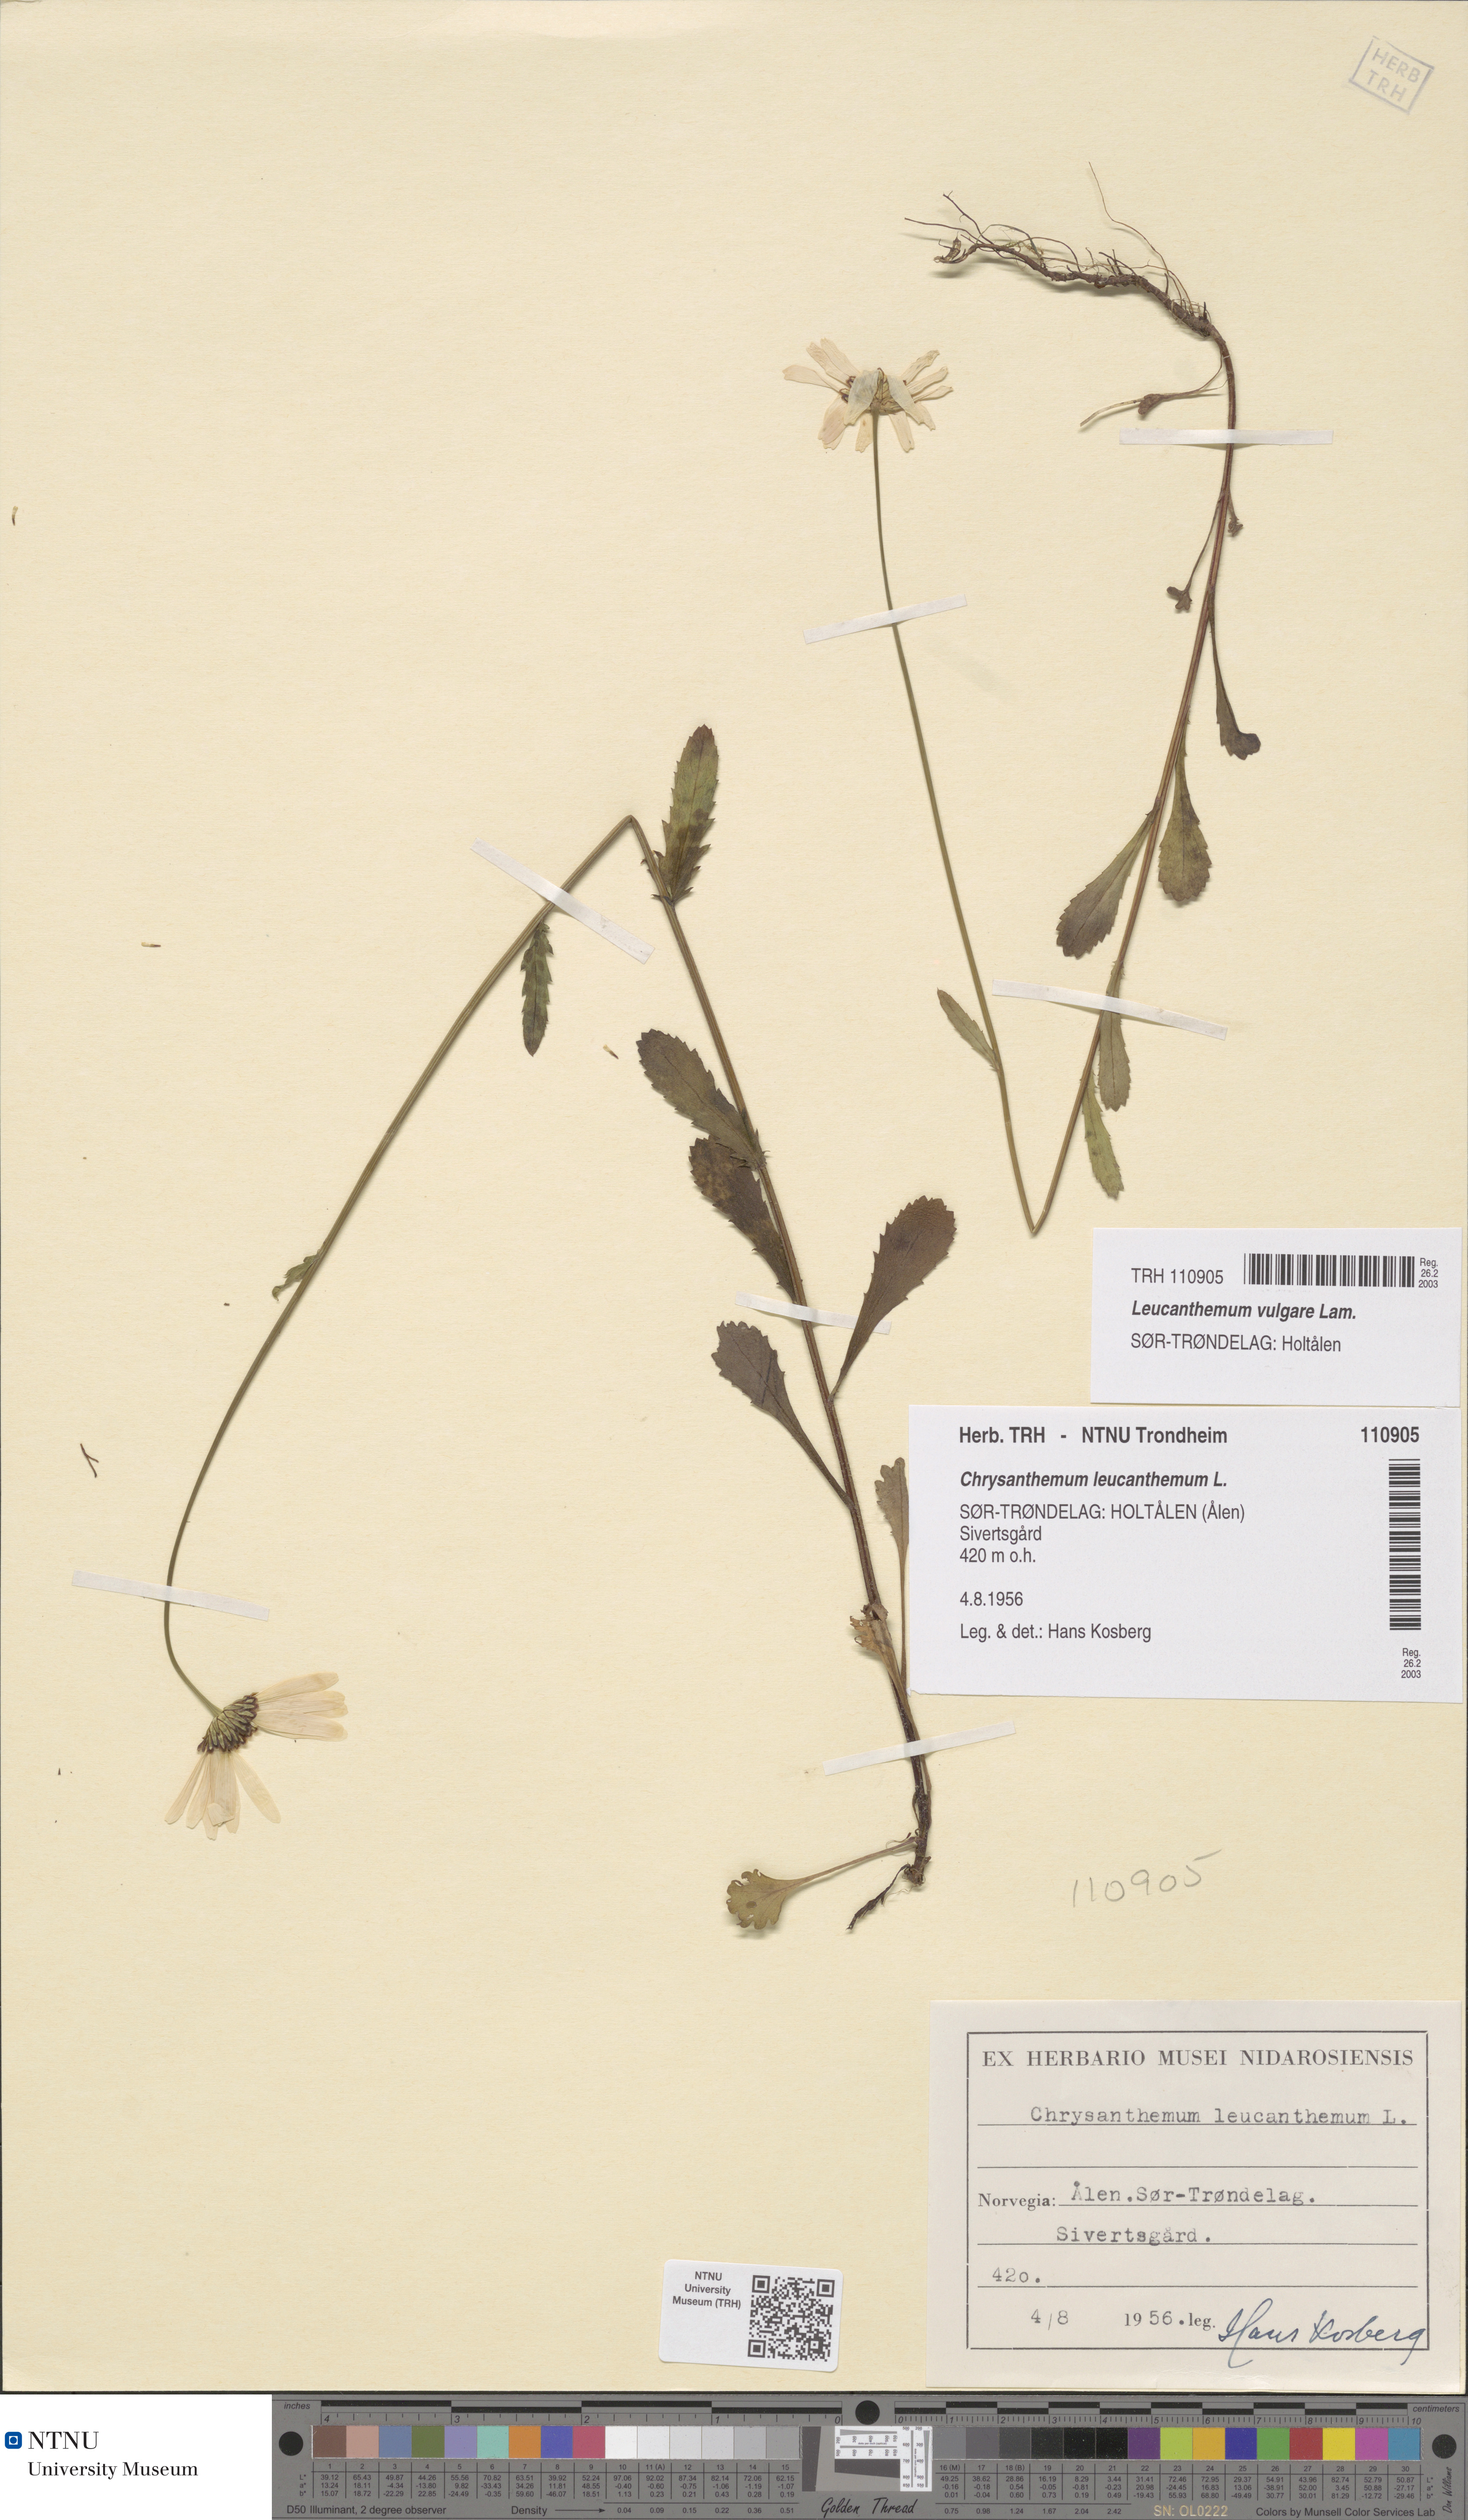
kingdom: Plantae
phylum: Tracheophyta
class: Magnoliopsida
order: Asterales
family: Asteraceae
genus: Leucanthemum
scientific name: Leucanthemum vulgare
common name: Oxeye daisy
